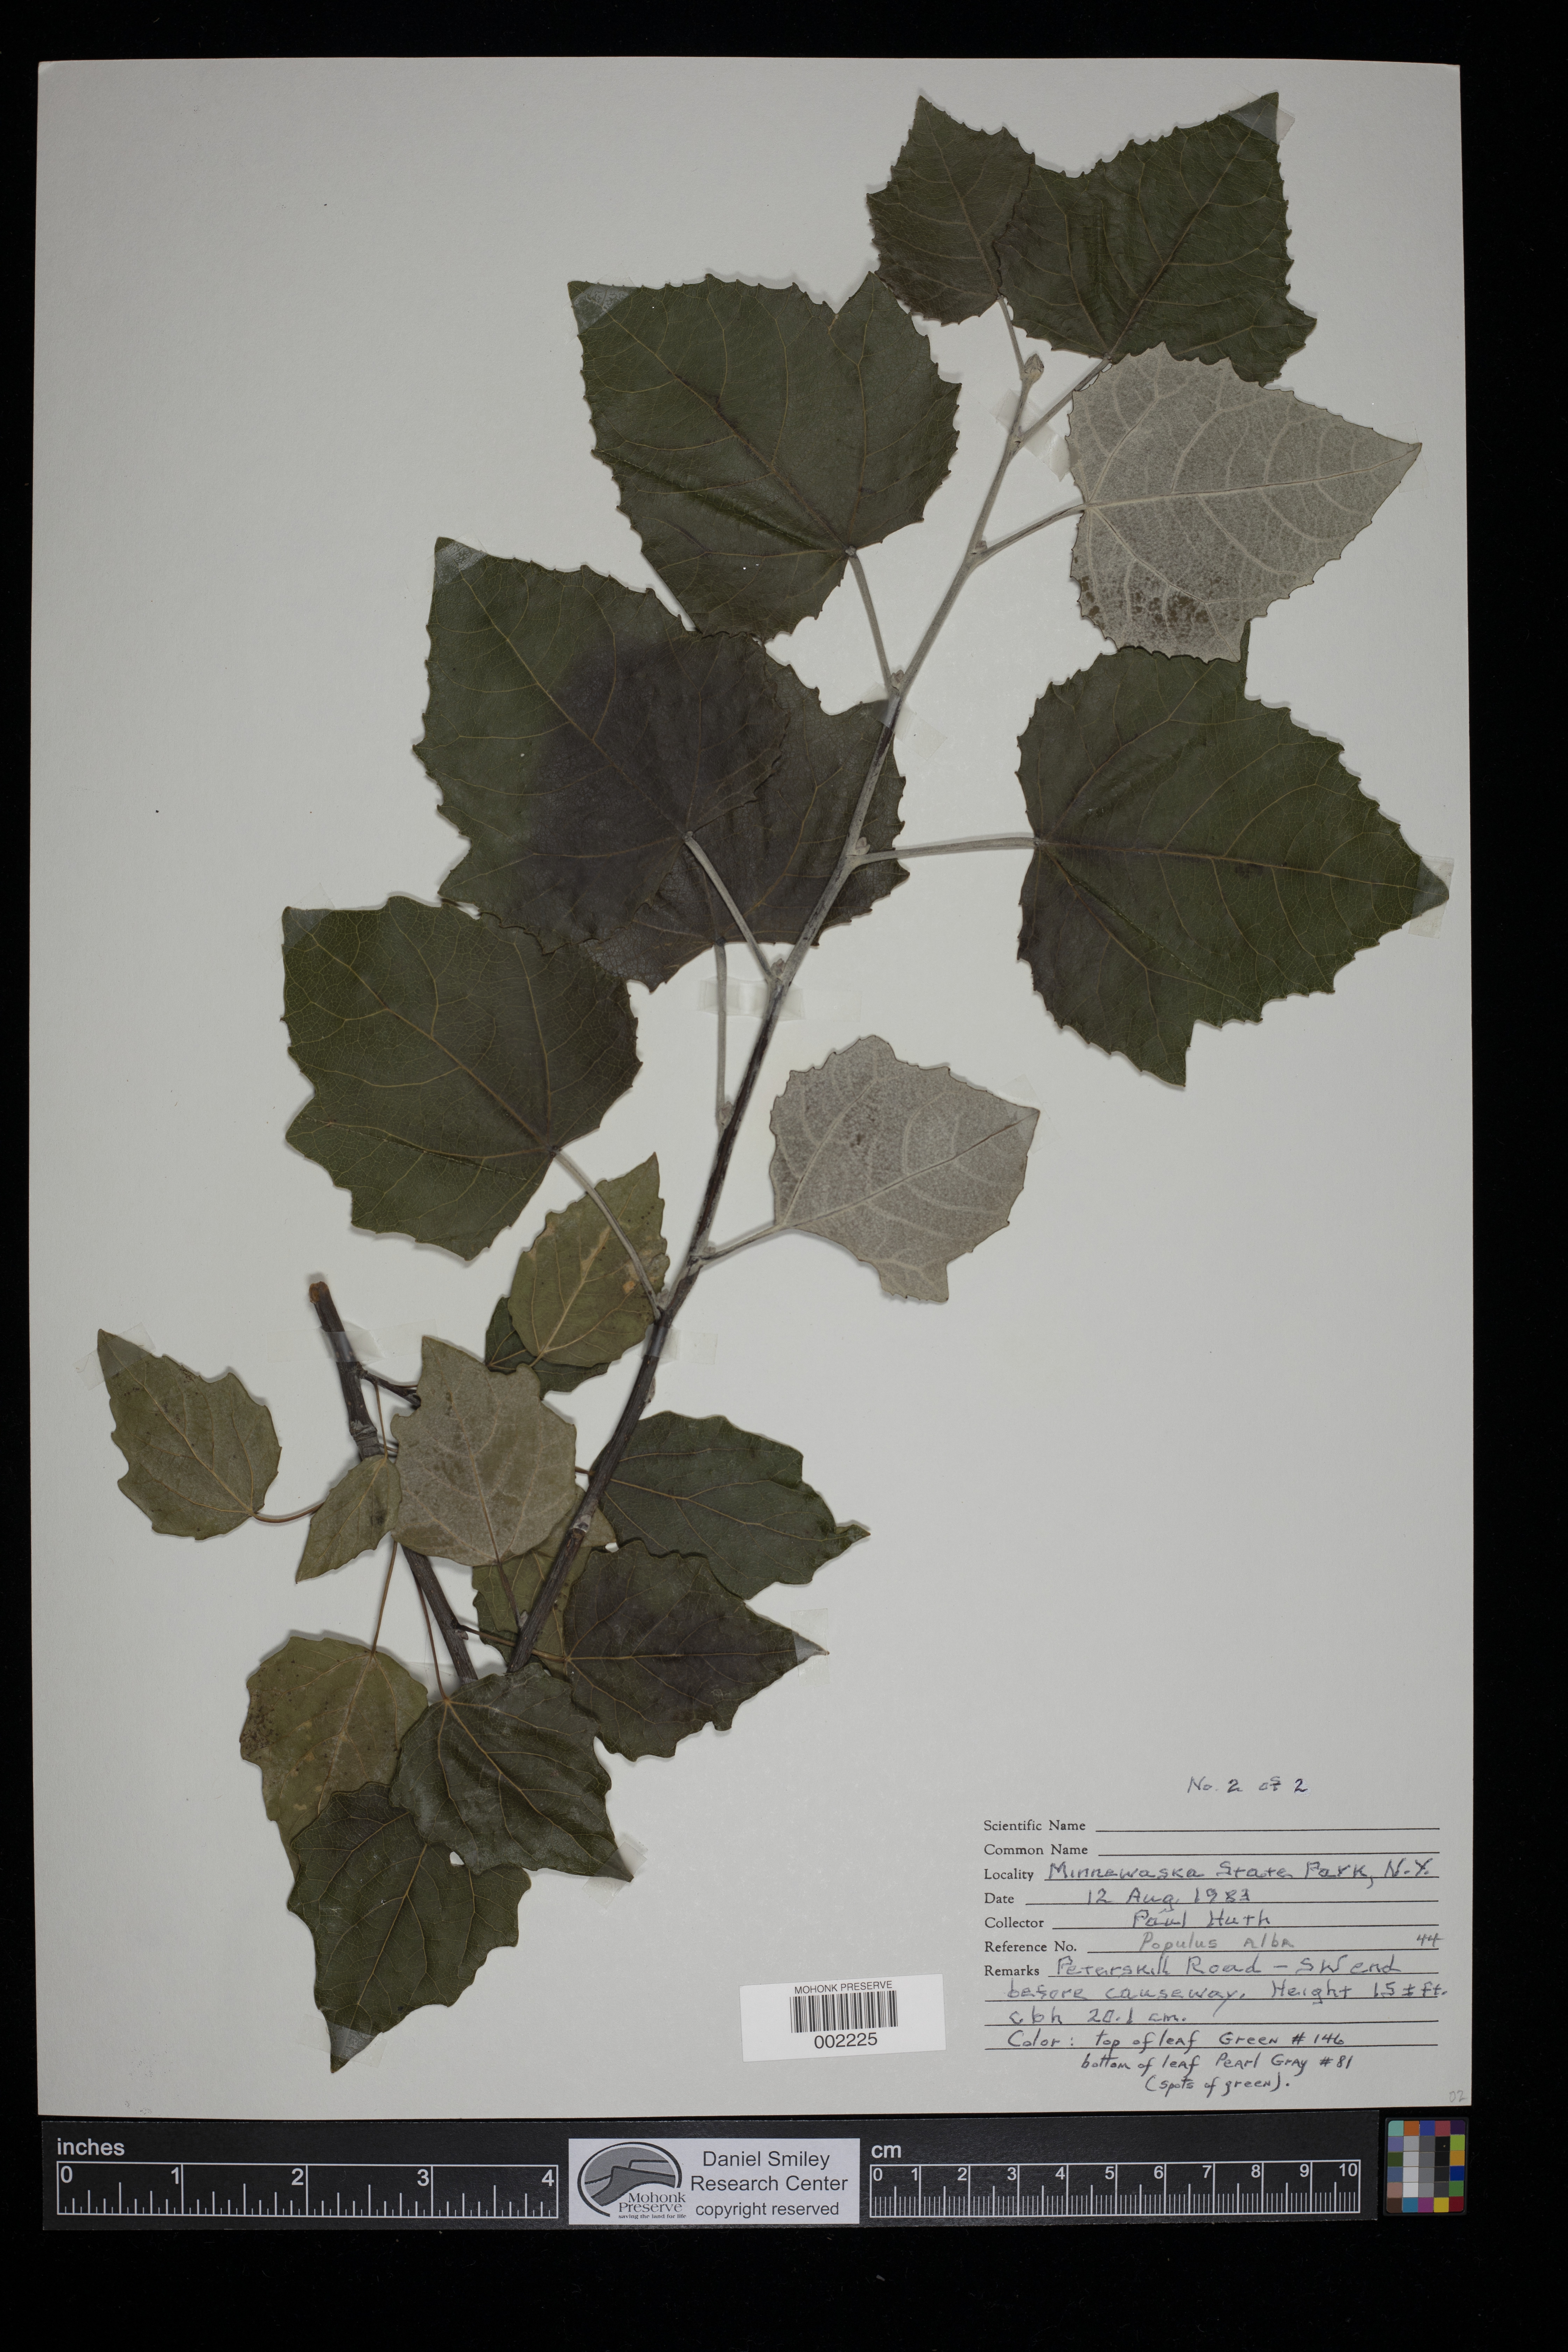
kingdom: Plantae
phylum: Tracheophyta
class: Magnoliopsida
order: Malpighiales
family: Salicaceae
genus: Populus
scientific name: Populus alba
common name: White poplar
